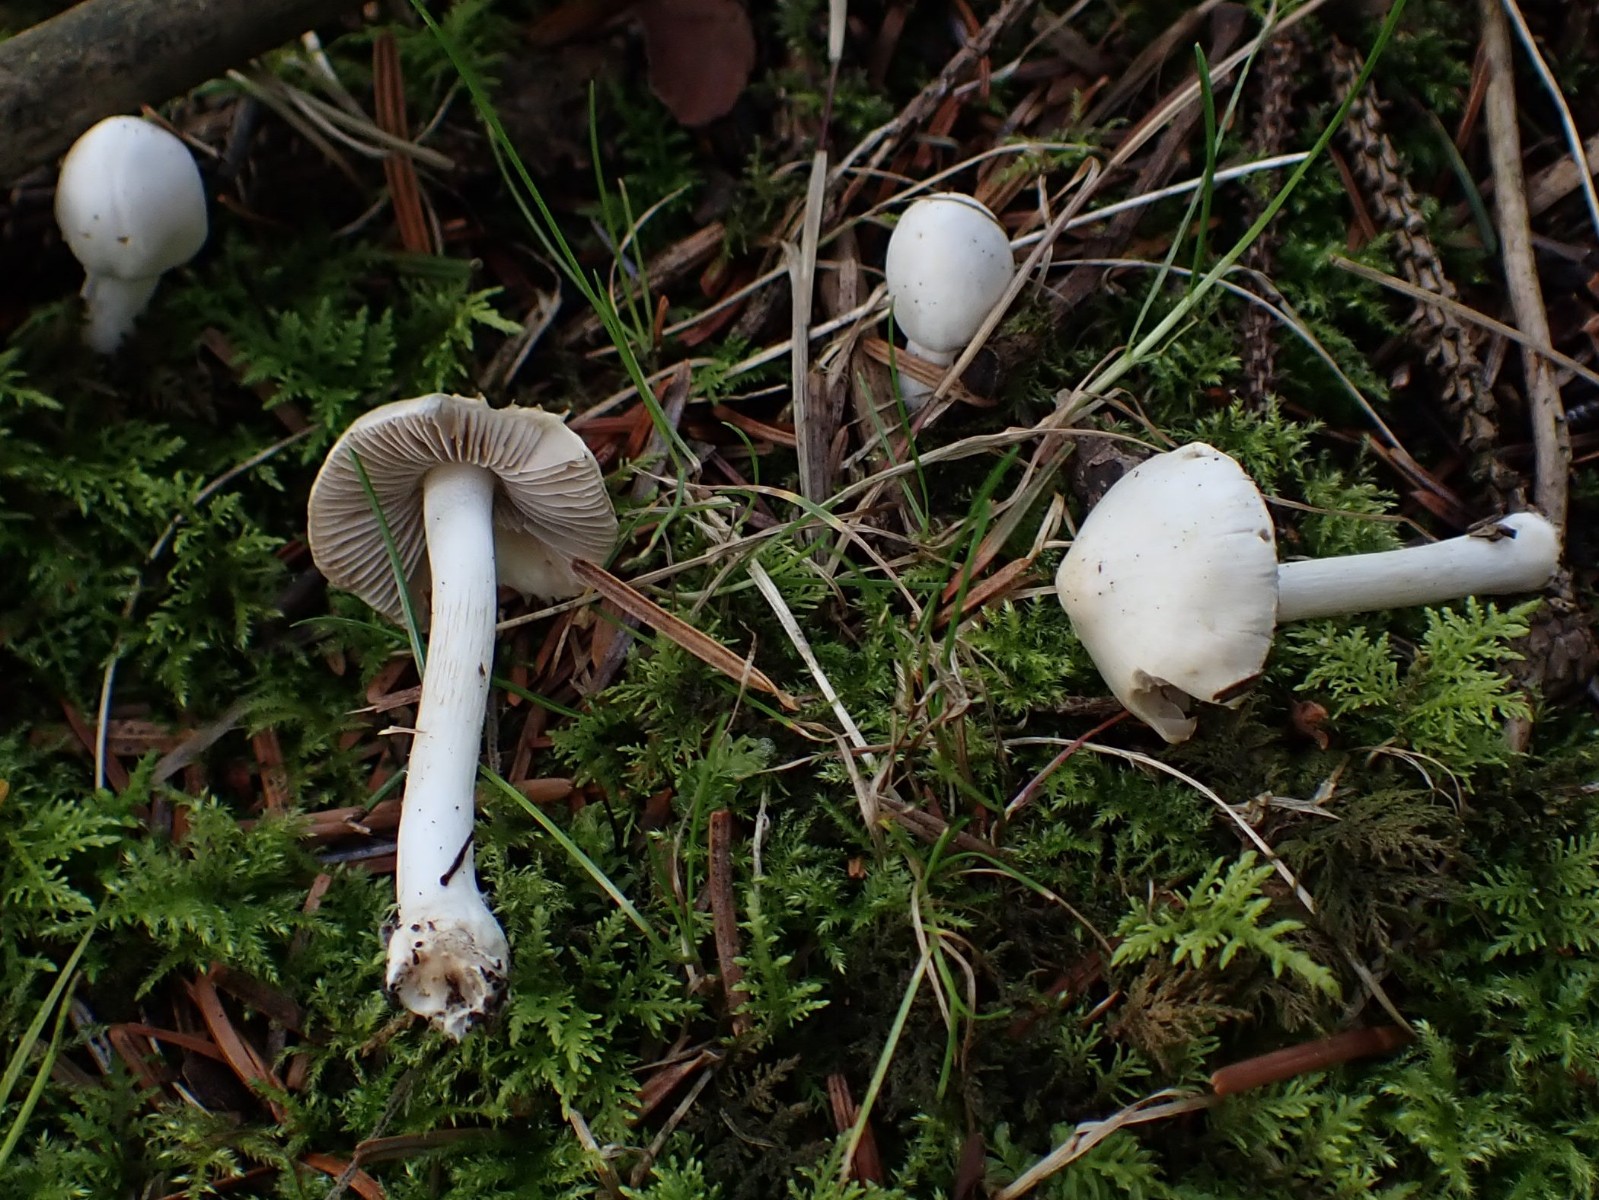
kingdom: Fungi
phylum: Basidiomycota
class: Agaricomycetes
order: Agaricales
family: Inocybaceae
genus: Inocybe
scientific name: Inocybe
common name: almindelig trævlhat
